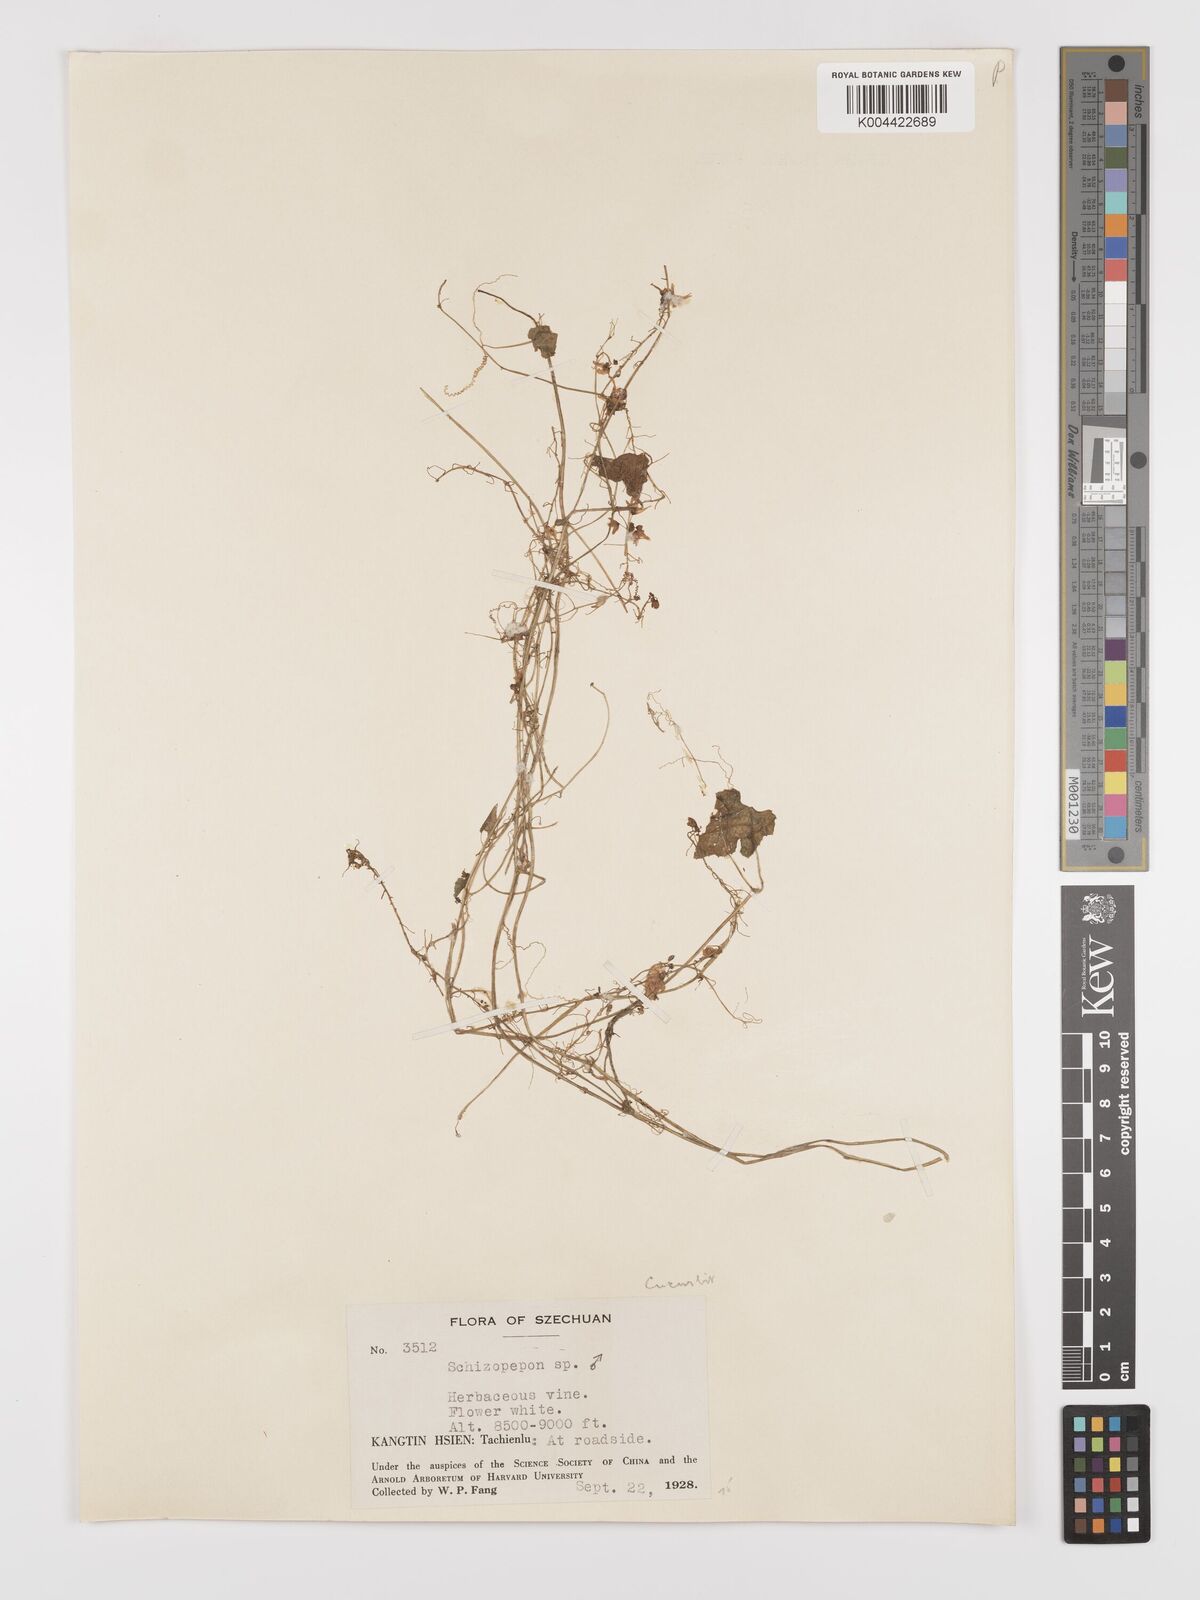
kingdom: Plantae
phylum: Tracheophyta
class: Magnoliopsida
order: Cucurbitales
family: Cucurbitaceae
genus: Schizopepon
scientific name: Schizopepon longipes
